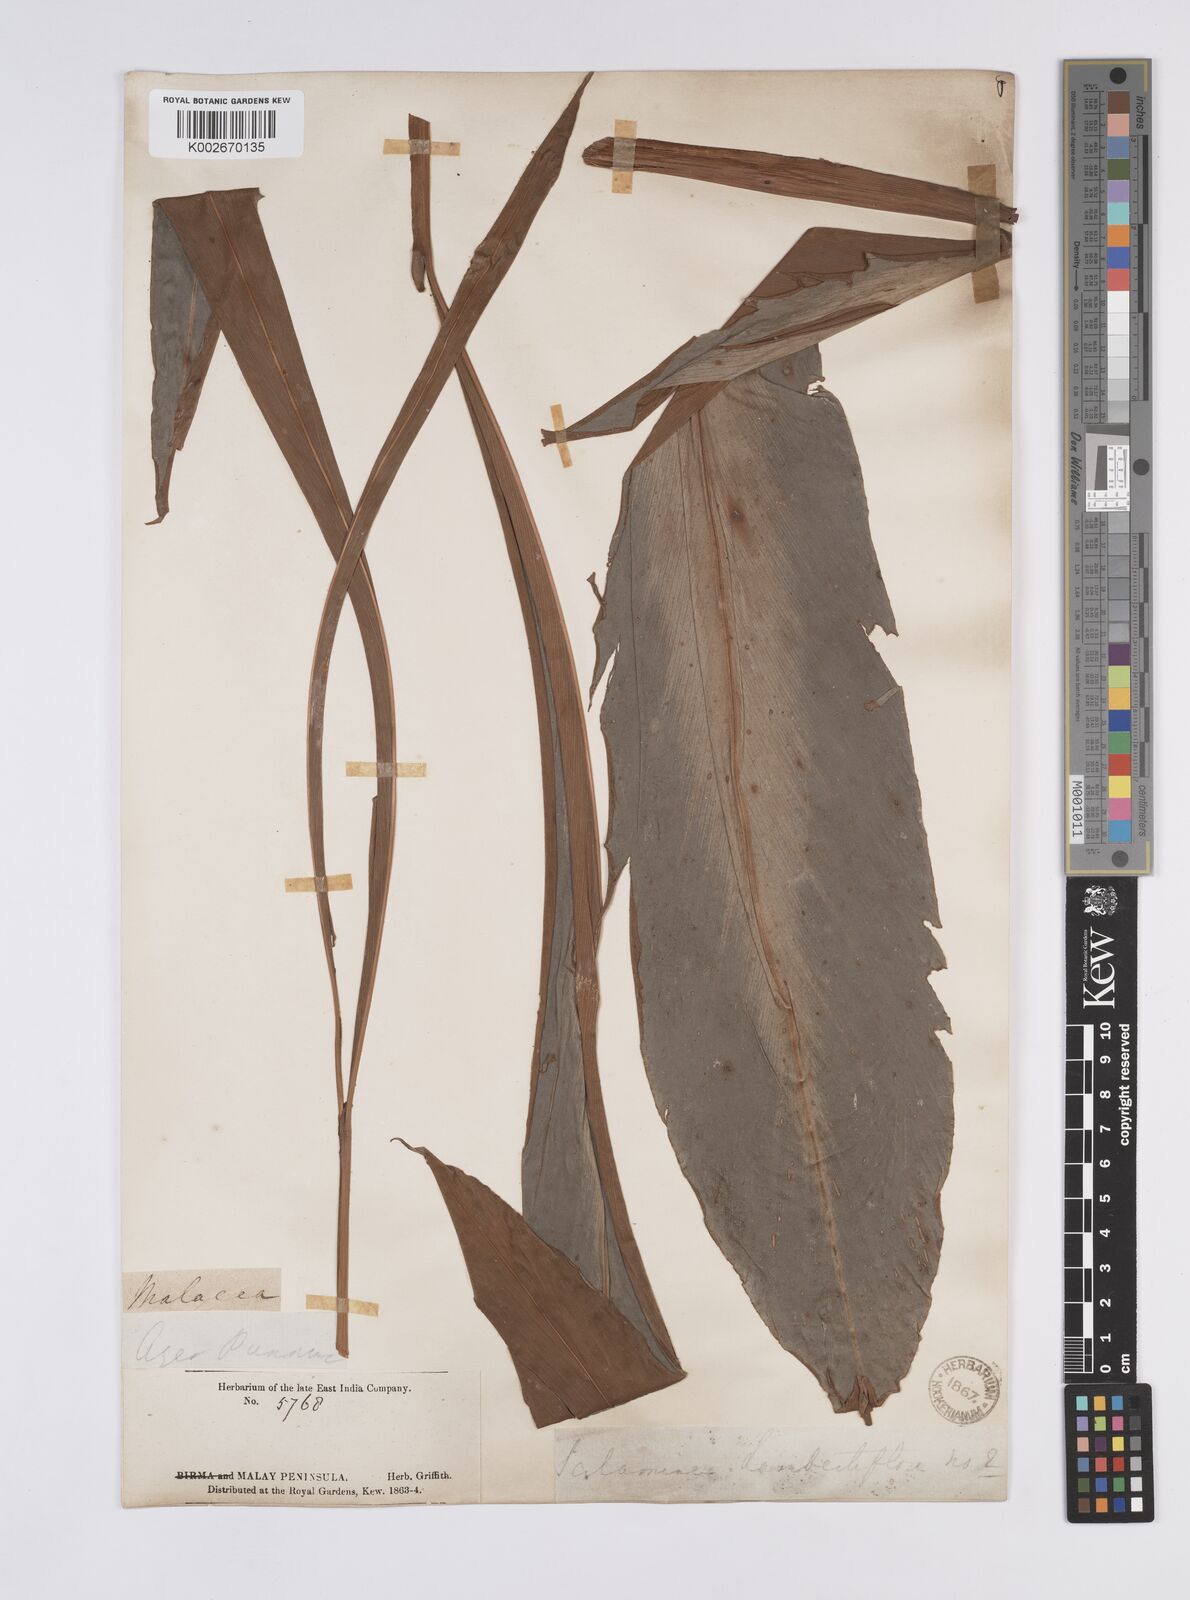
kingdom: Plantae
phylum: Tracheophyta
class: Liliopsida
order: Zingiberales
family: Zingiberaceae
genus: Hornstedtia
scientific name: Hornstedtia scyphifera
